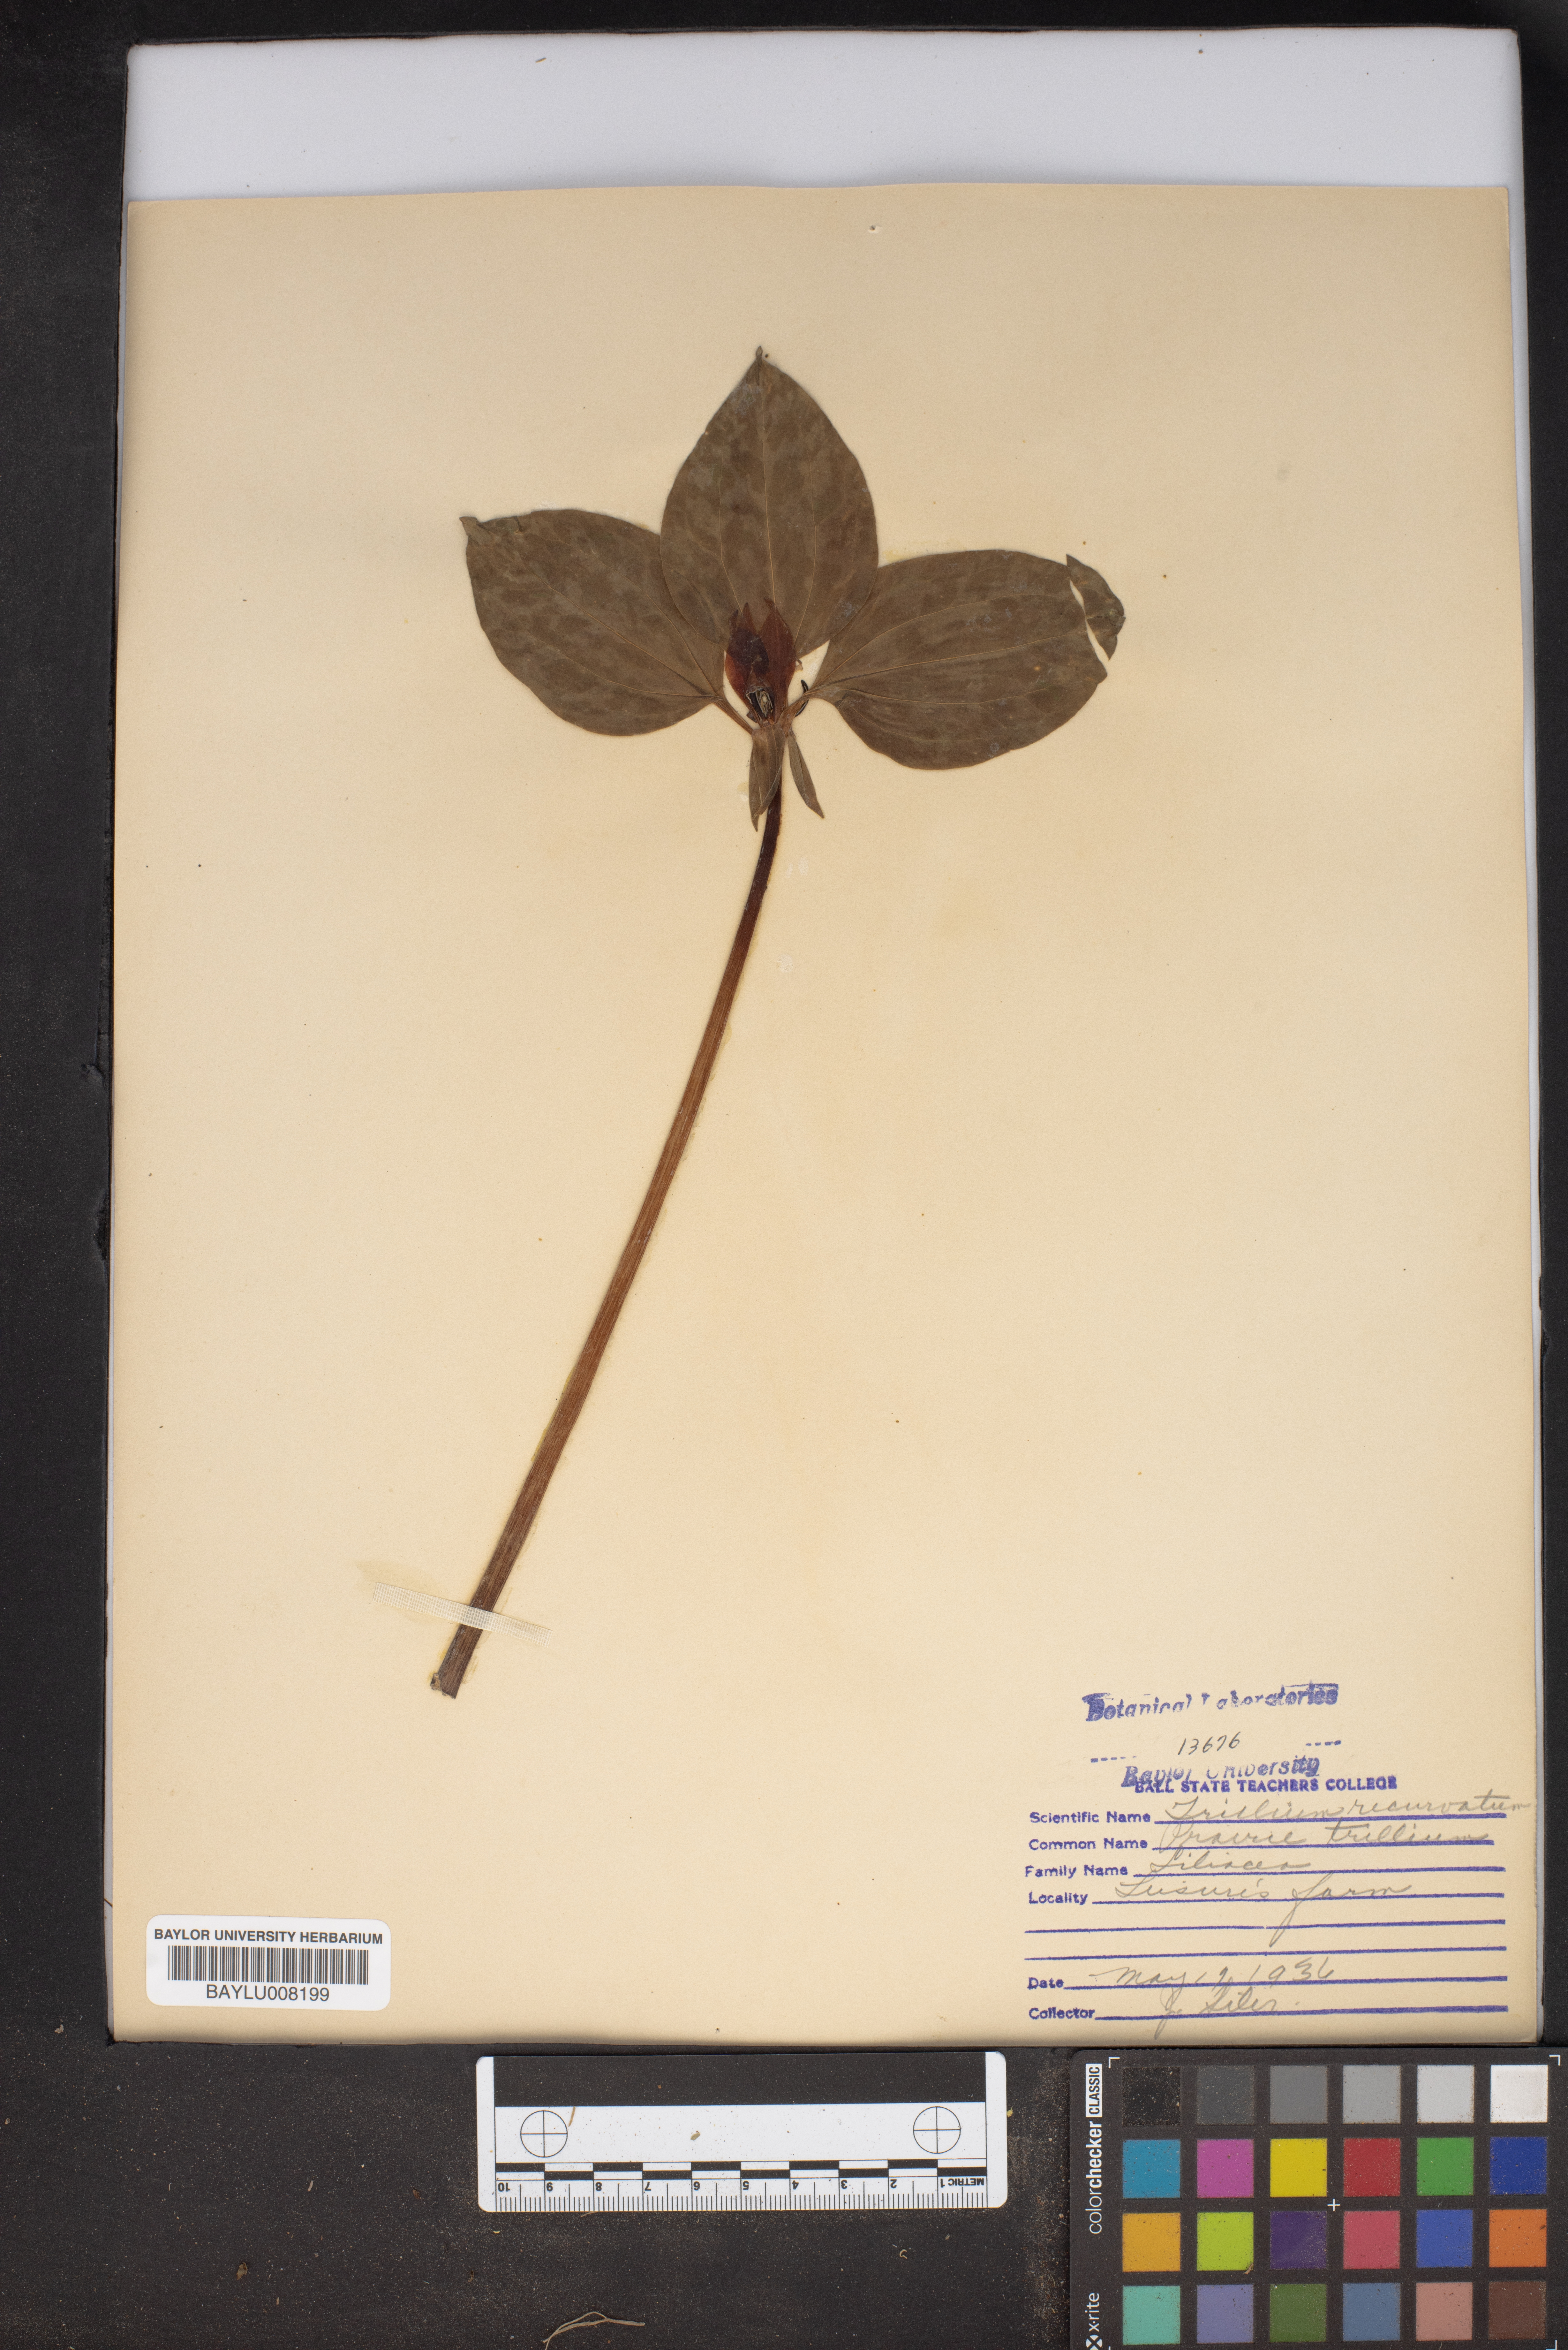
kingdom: Plantae
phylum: Tracheophyta
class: Liliopsida
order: Liliales
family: Melanthiaceae
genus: Trillium
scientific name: Trillium recurvatum
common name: Bloody butcher
